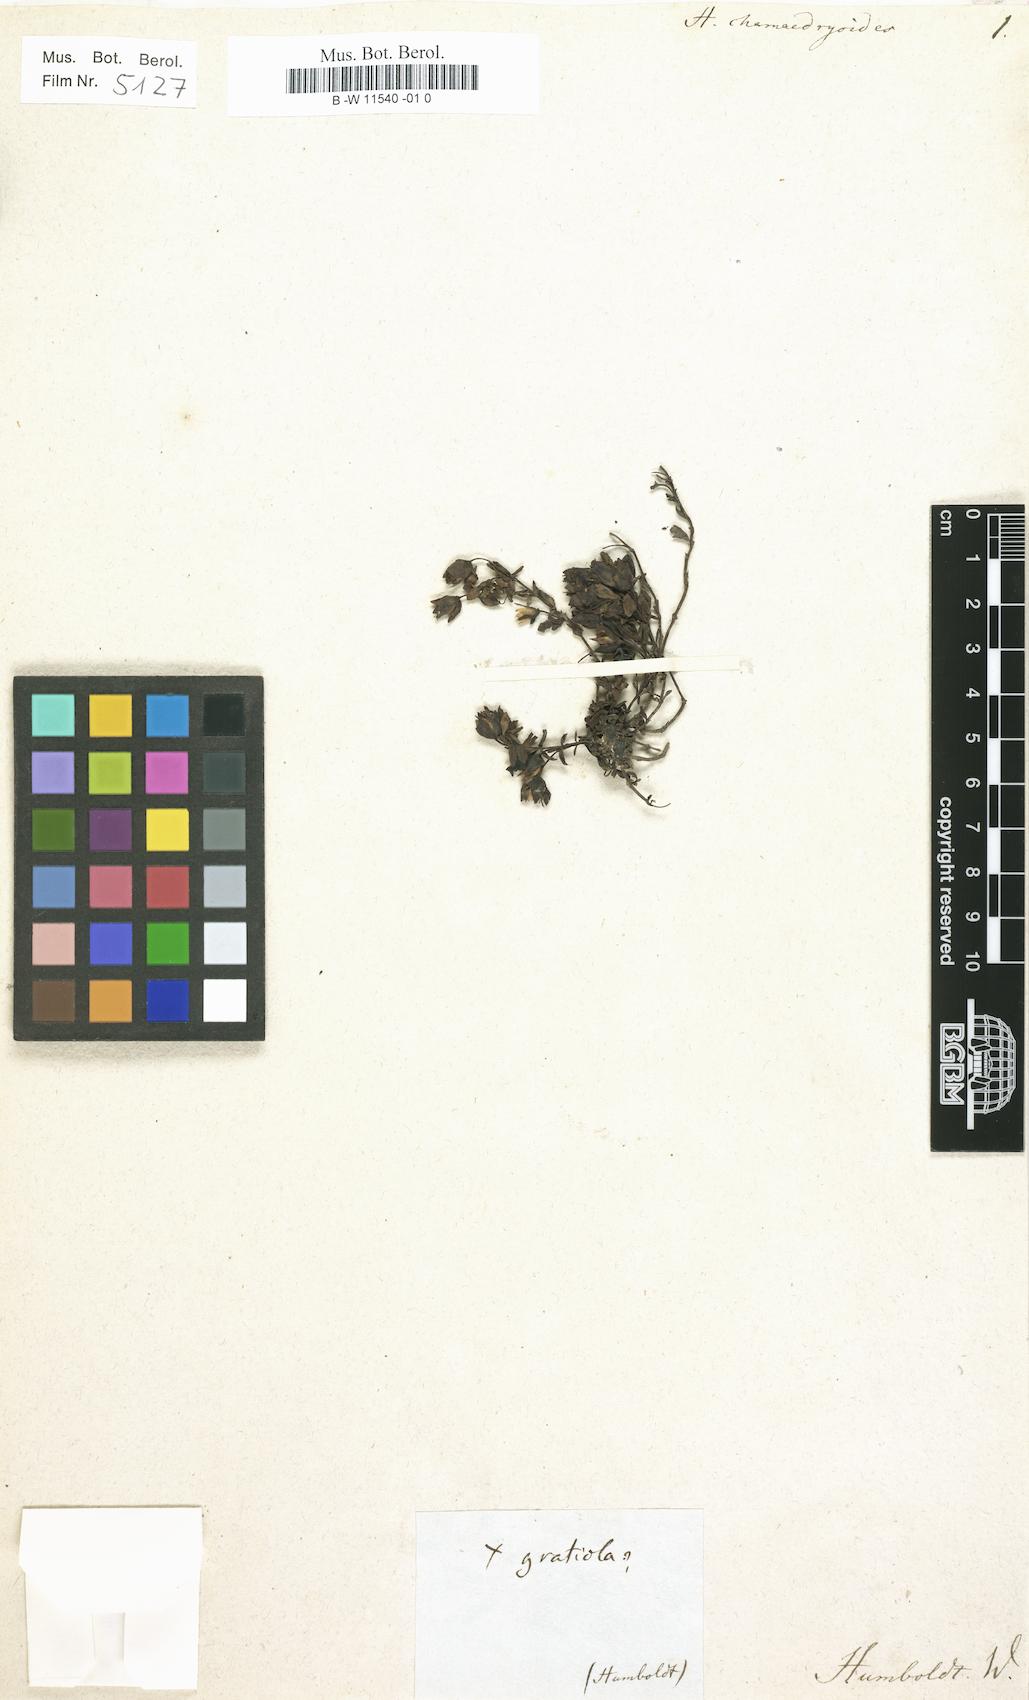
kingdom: Plantae
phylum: Tracheophyta
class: Magnoliopsida
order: Lamiales
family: Plantaginaceae
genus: Mecardonia
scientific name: Mecardonia procumbens
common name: Baby jump-up
